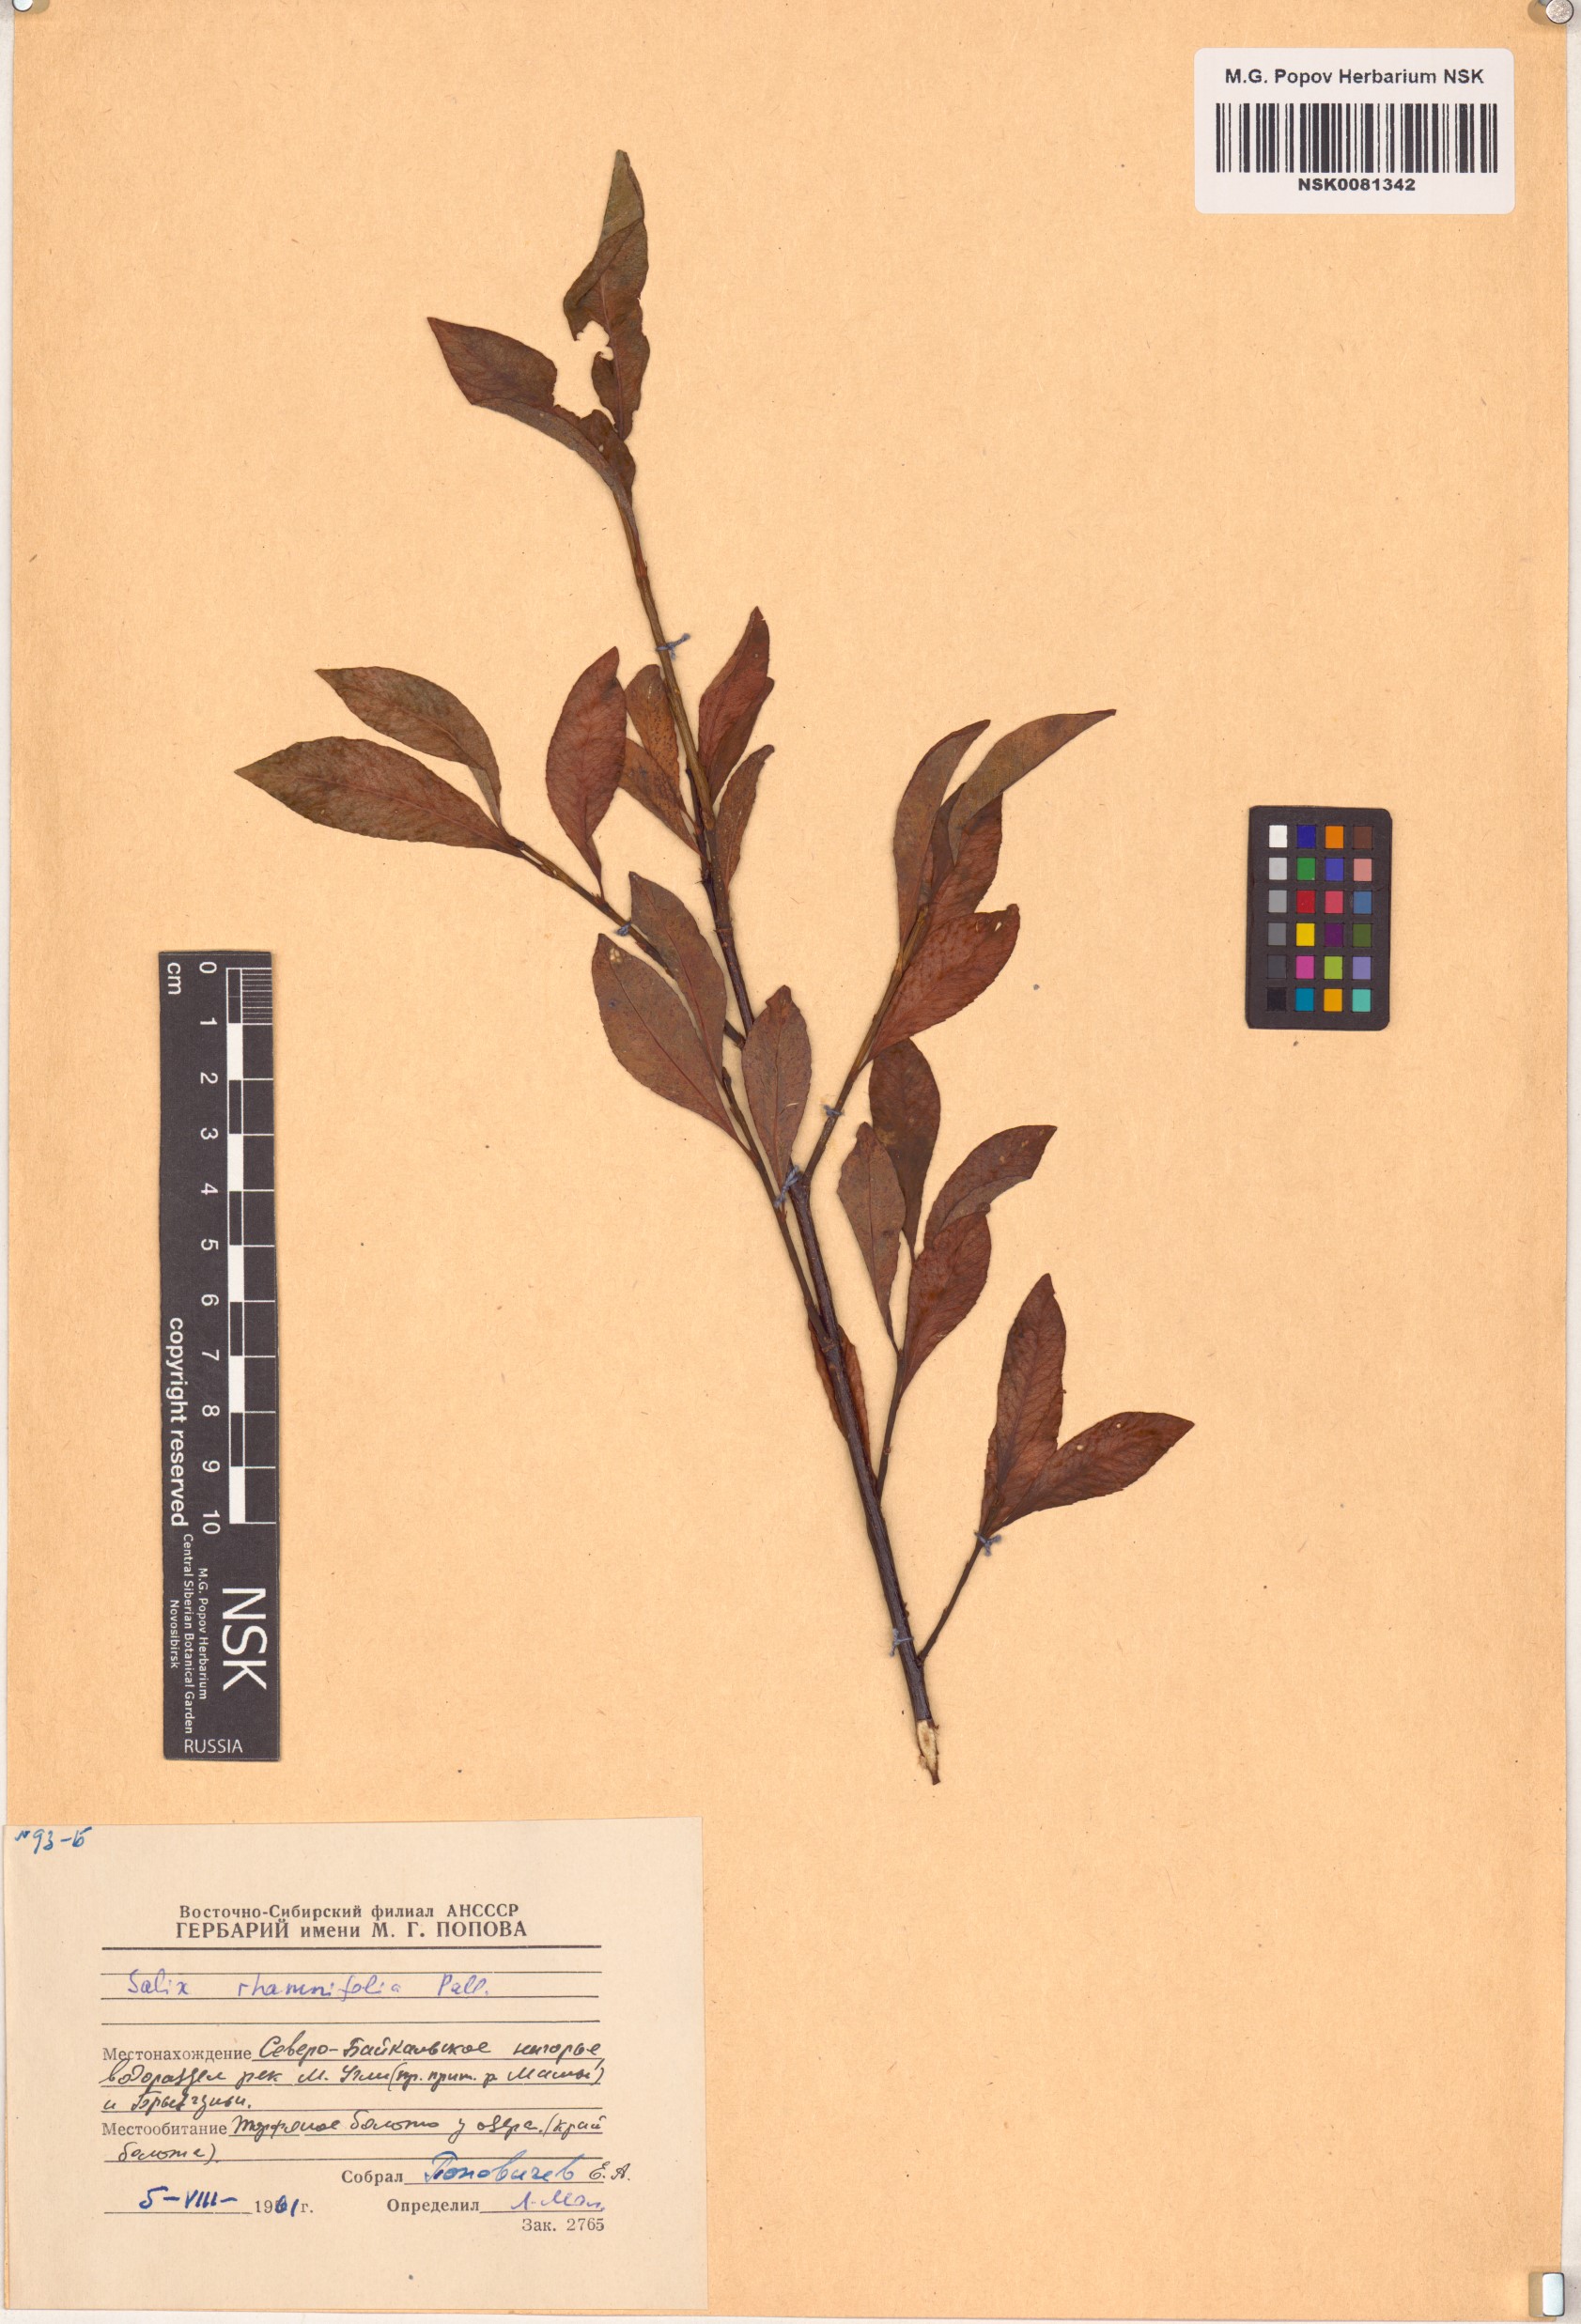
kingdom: Plantae
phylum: Tracheophyta
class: Magnoliopsida
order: Malpighiales
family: Salicaceae
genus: Salix
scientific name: Salix rhamnifolia
